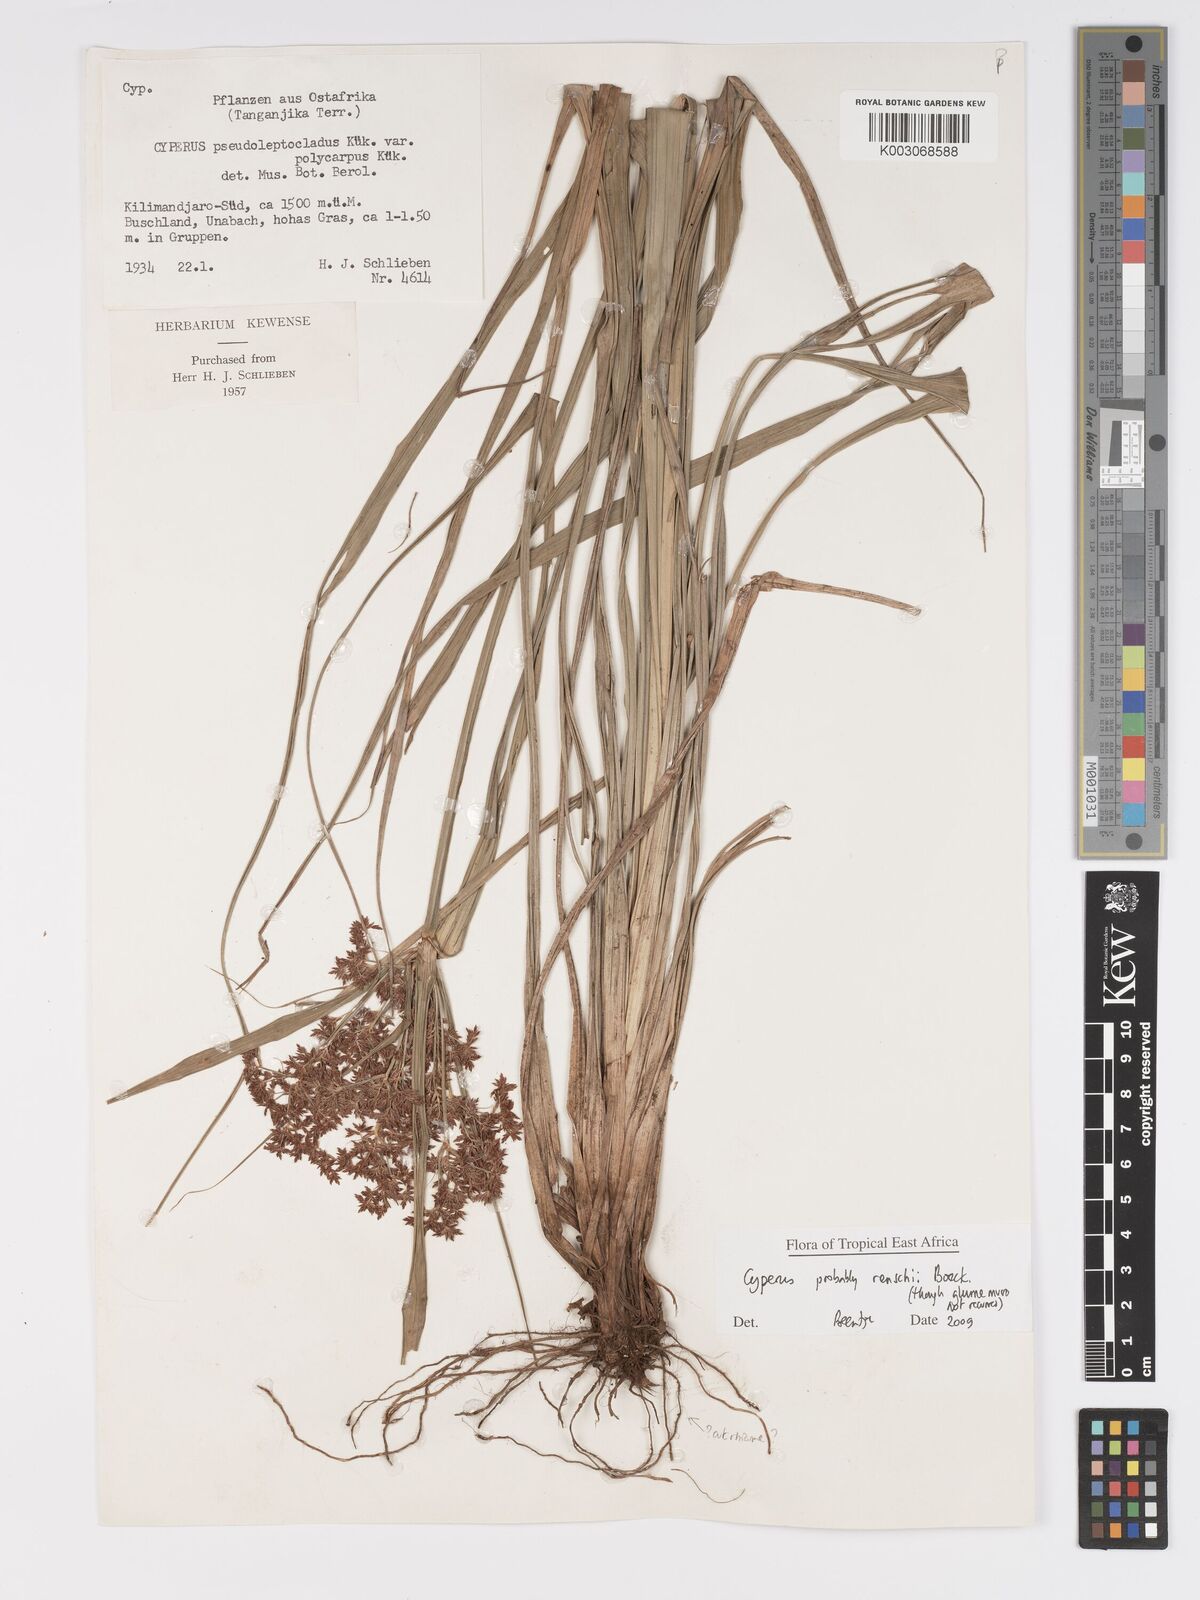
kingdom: Plantae
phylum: Tracheophyta
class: Liliopsida
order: Poales
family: Cyperaceae
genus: Cyperus
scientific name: Cyperus renschii
